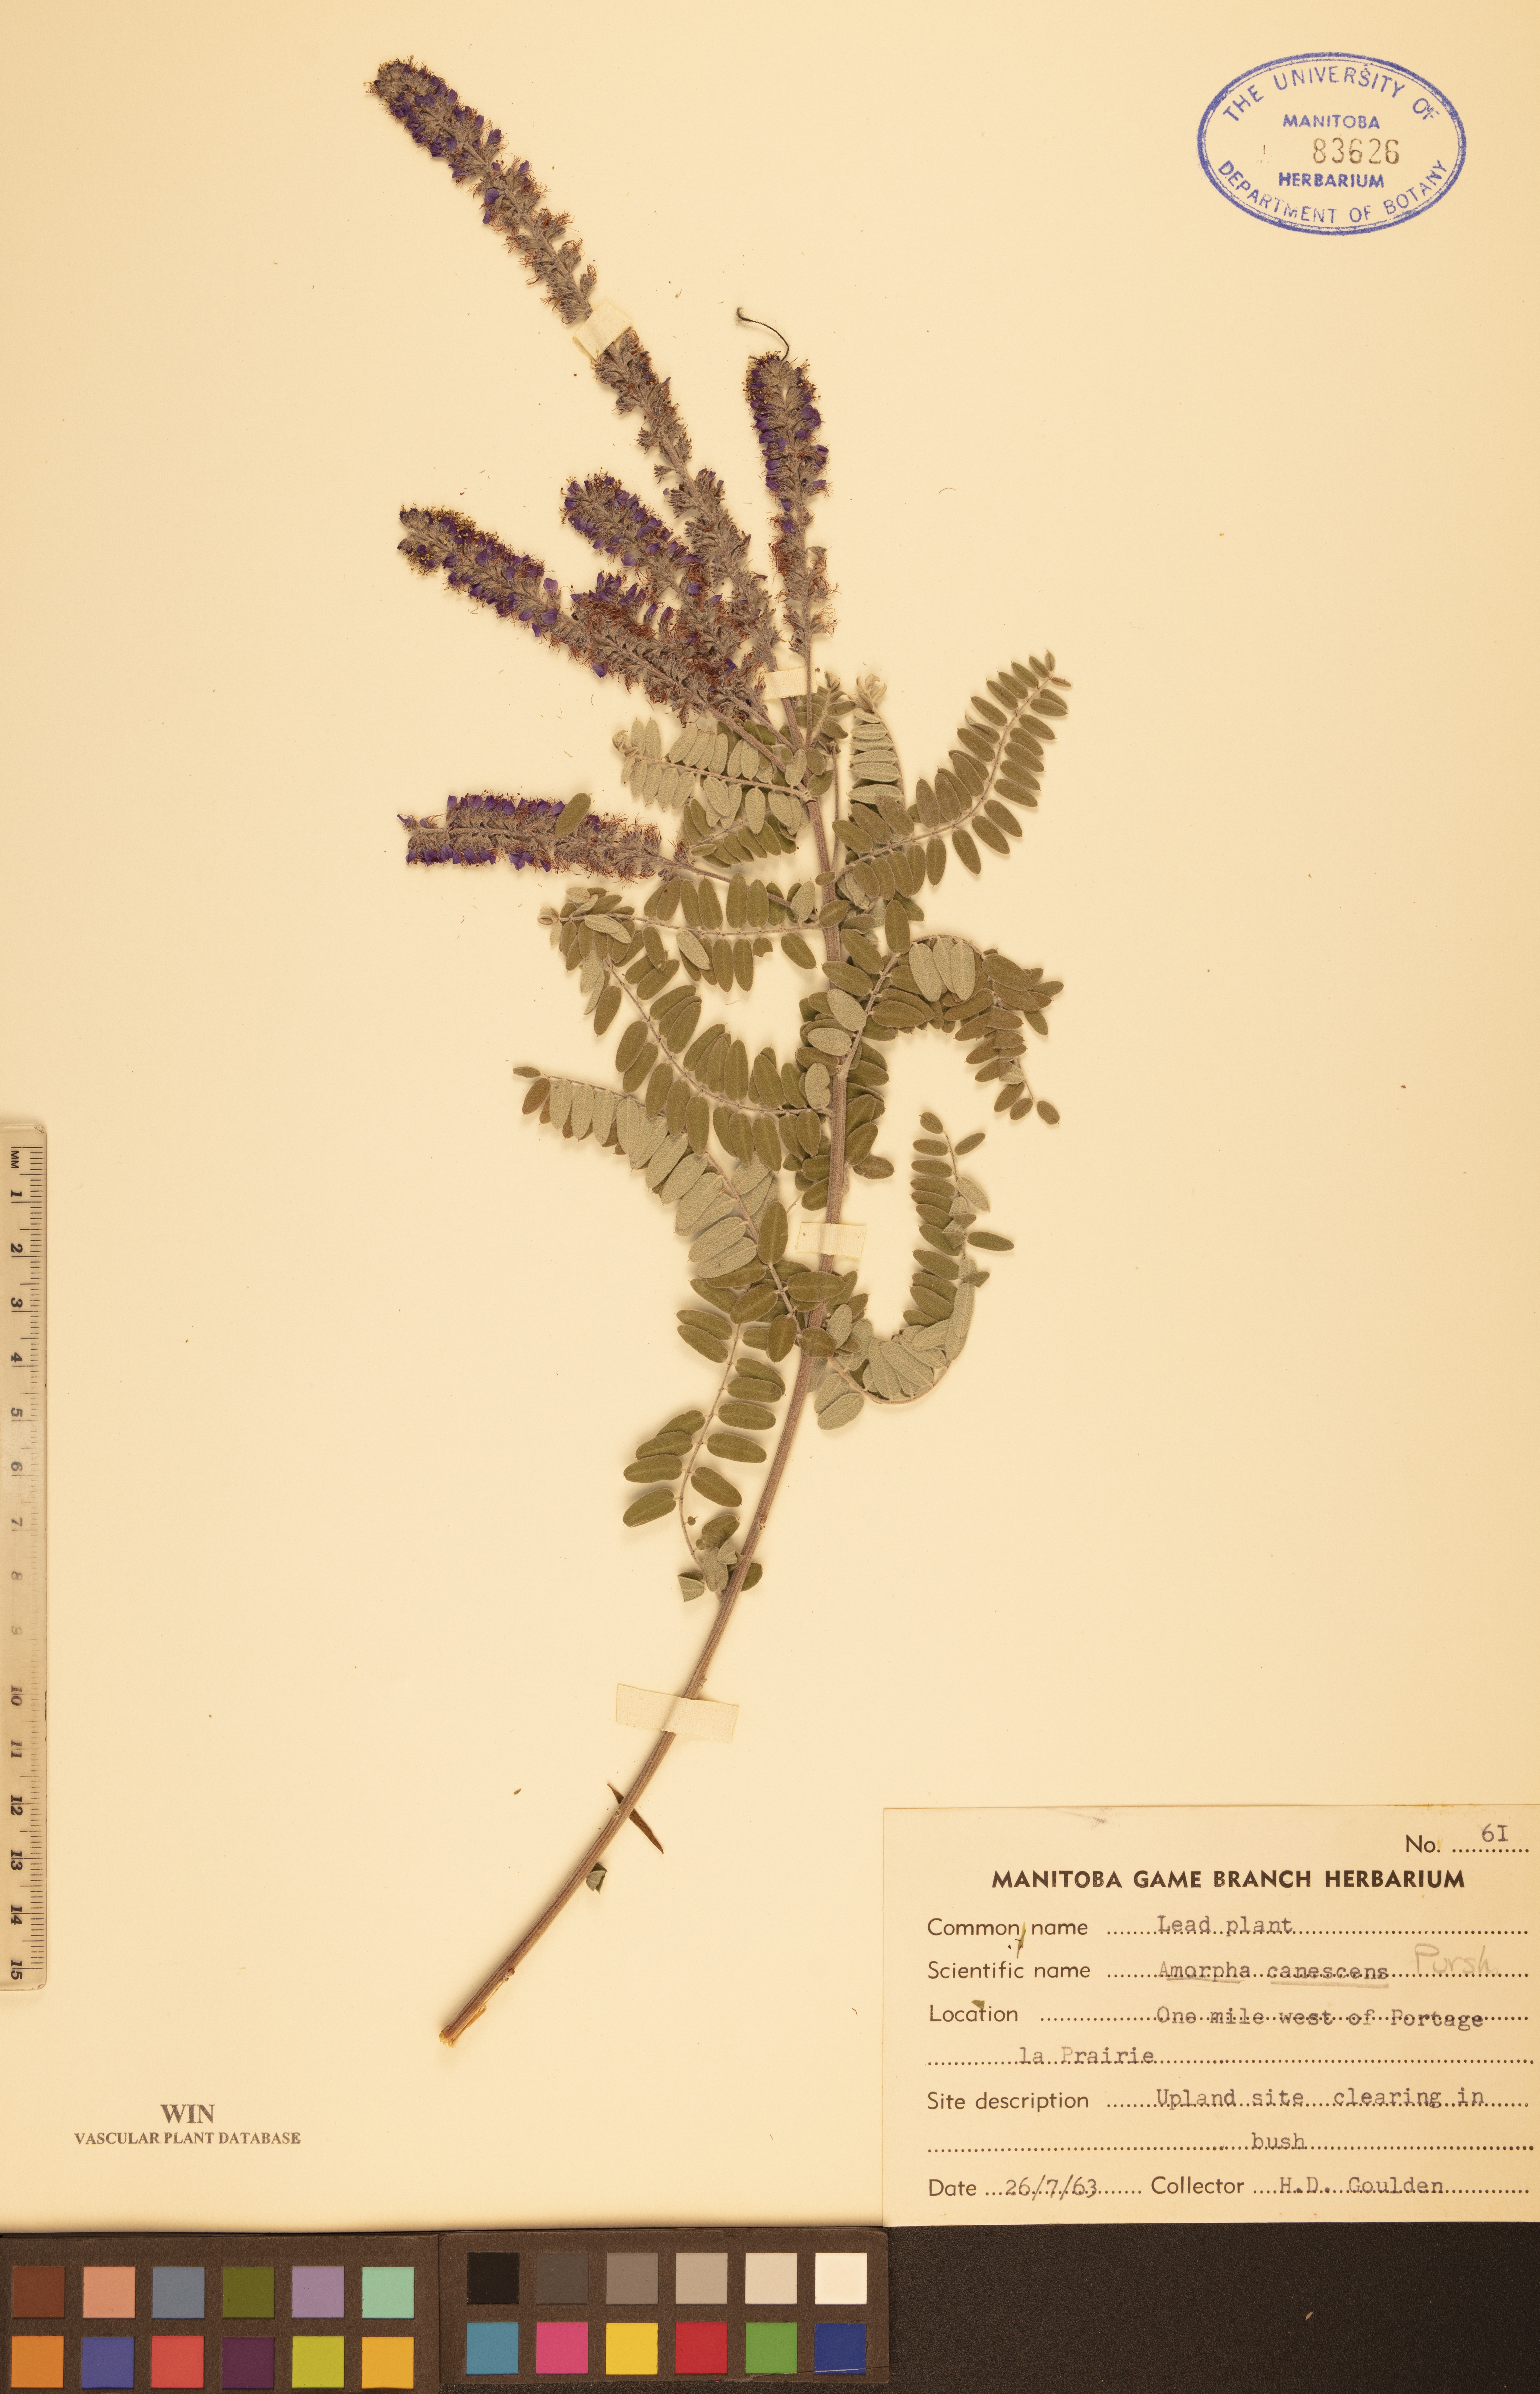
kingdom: Plantae
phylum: Tracheophyta
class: Magnoliopsida
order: Fabales
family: Fabaceae
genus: Amorpha
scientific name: Amorpha canescens
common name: Leadplant
